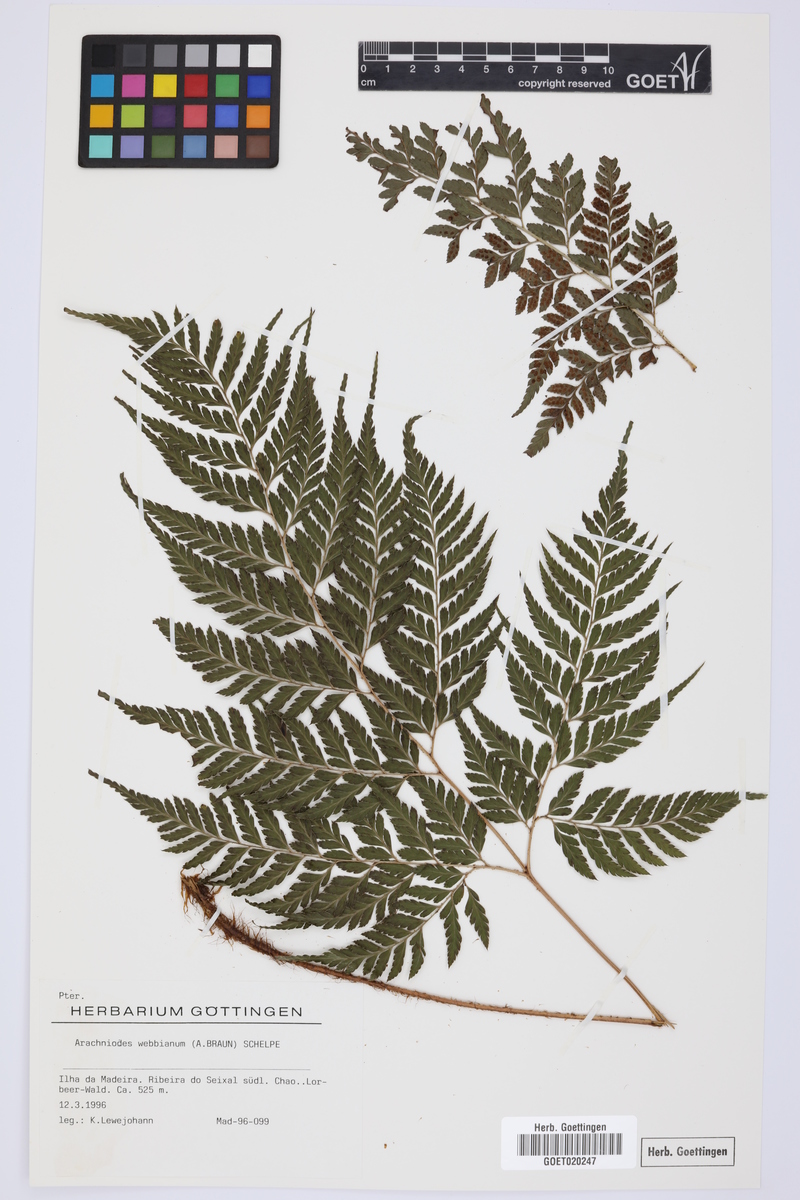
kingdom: Plantae
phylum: Tracheophyta
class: Polypodiopsida
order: Polypodiales
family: Dryopteridaceae
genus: Arachniodes
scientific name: Arachniodes webbiana
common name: Madeira holly fern
